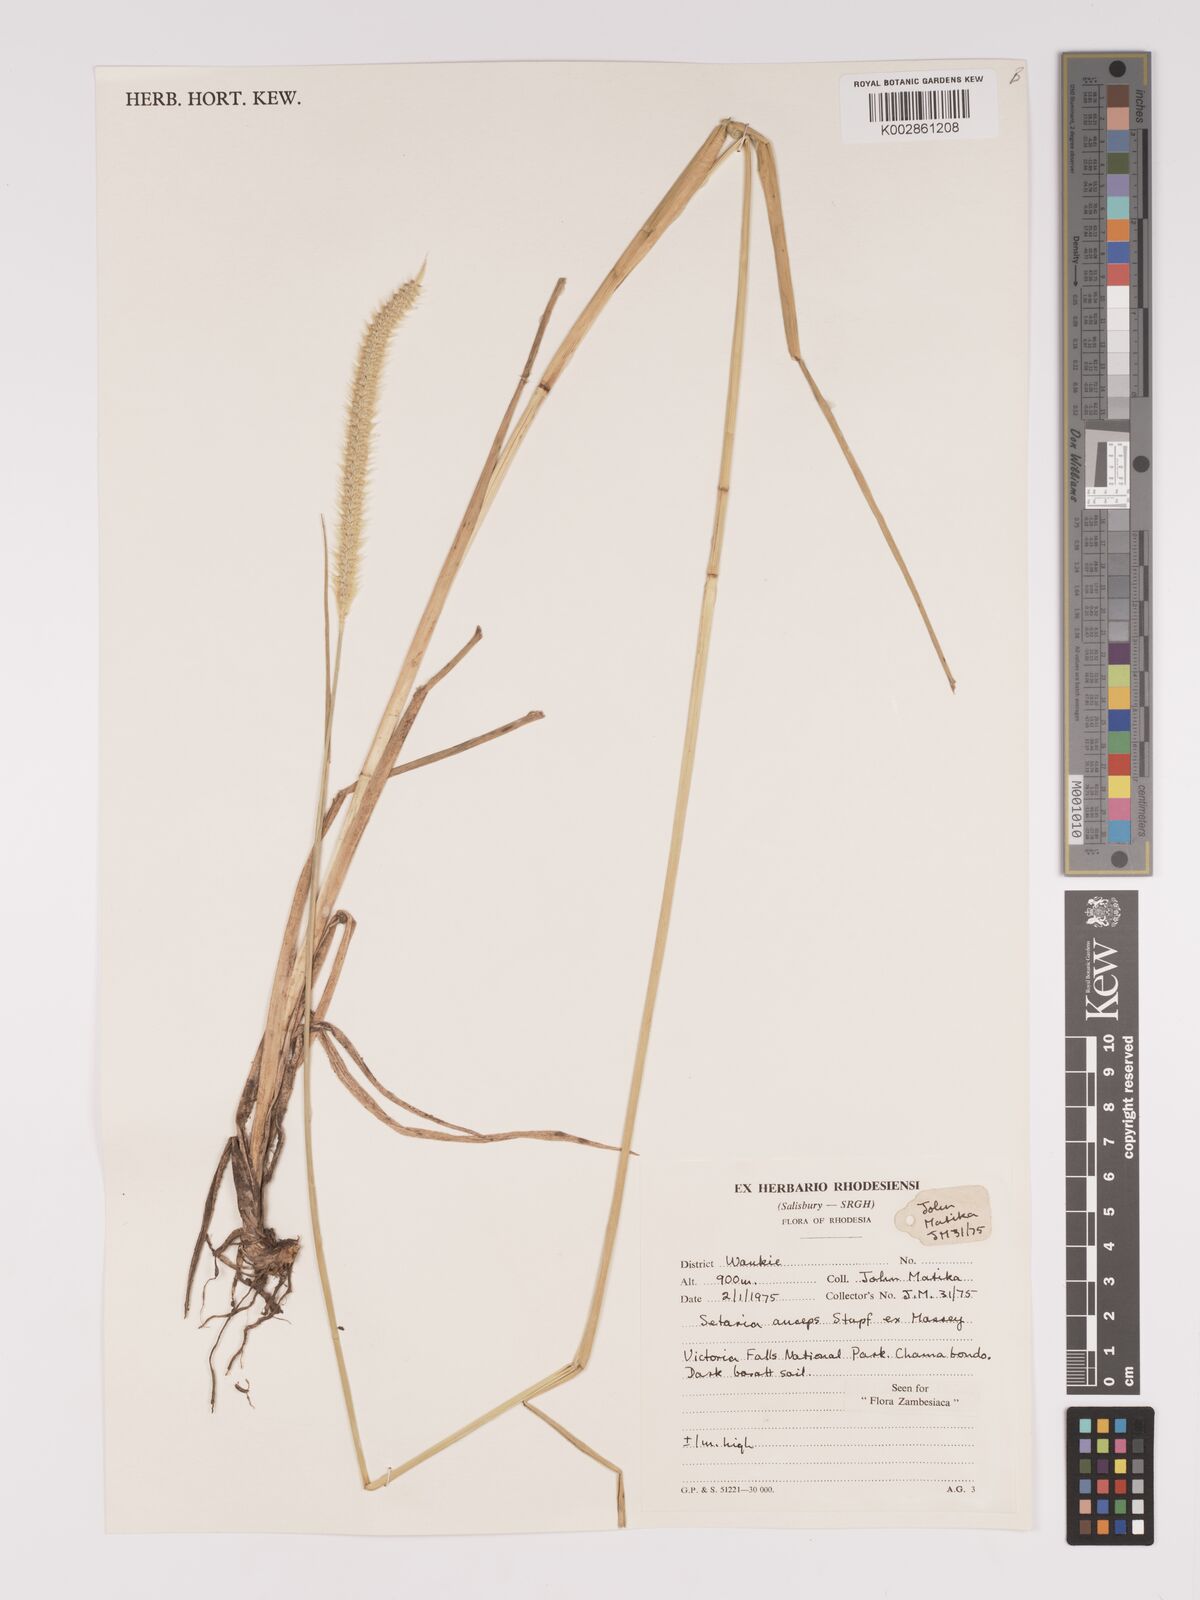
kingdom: Plantae
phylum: Tracheophyta
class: Liliopsida
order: Poales
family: Poaceae
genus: Setaria
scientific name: Setaria sphacelata
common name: African bristlegrass
